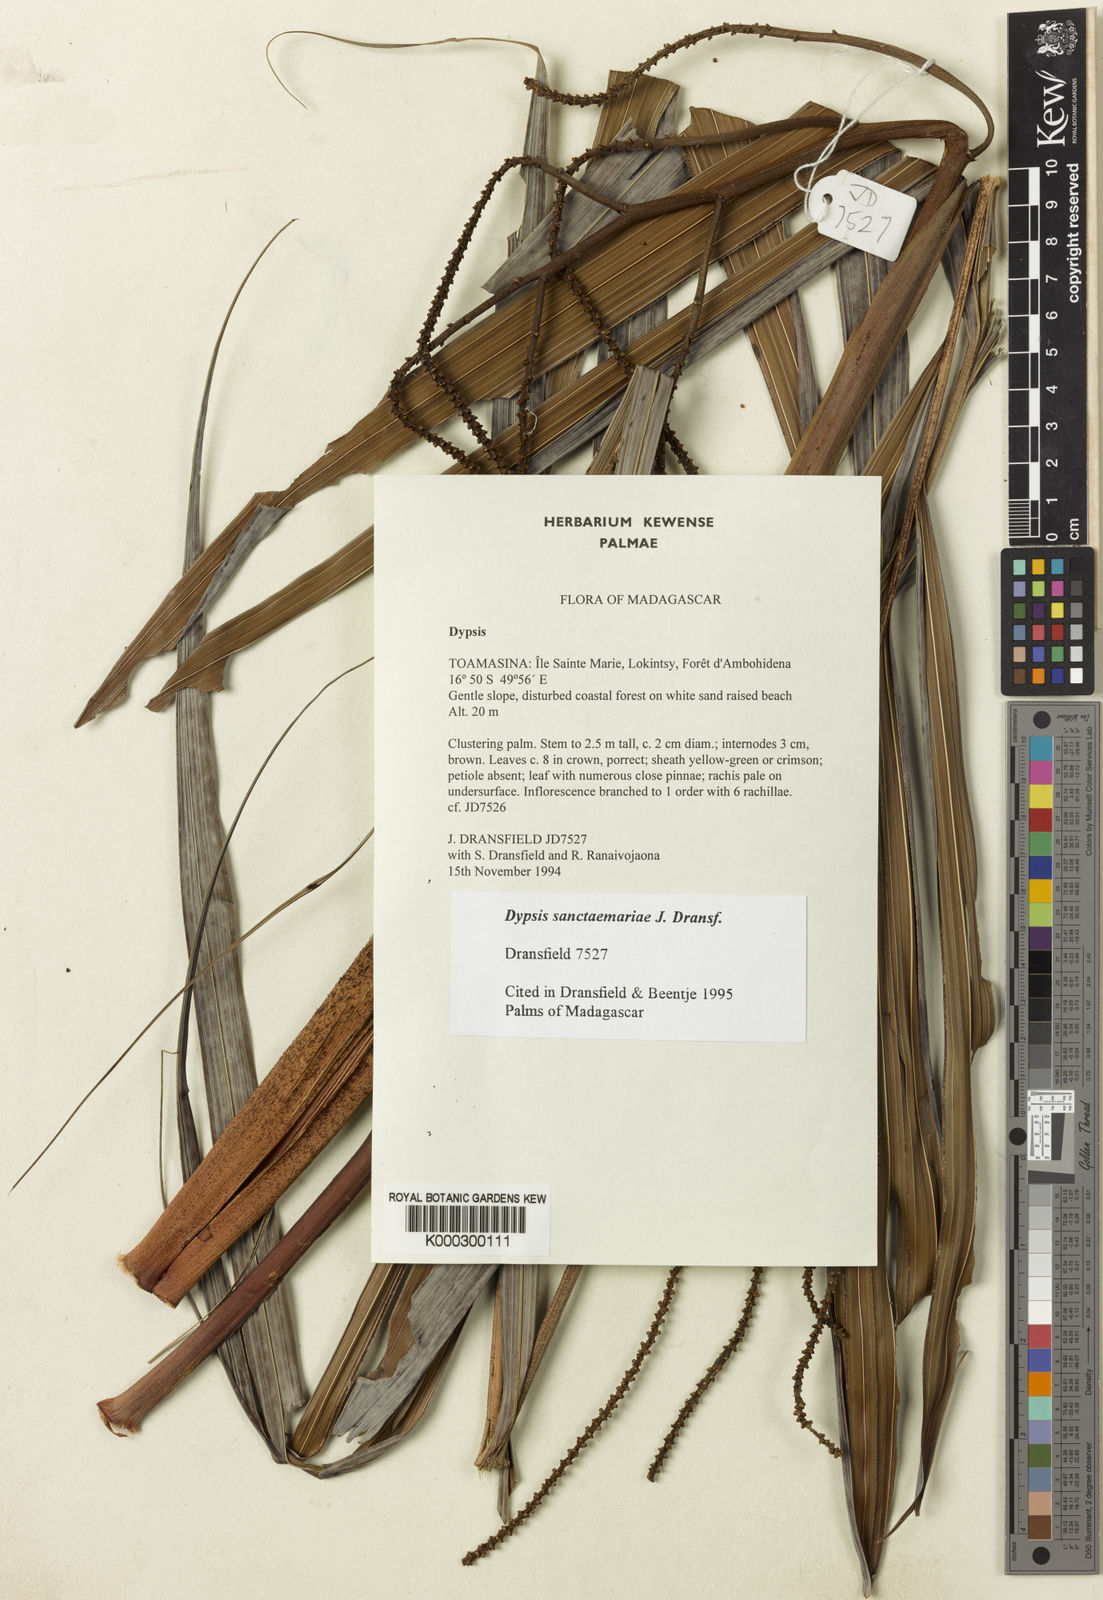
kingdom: Plantae
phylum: Tracheophyta
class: Liliopsida
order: Arecales
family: Arecaceae
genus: Dypsis
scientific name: Dypsis sanctaemariae
